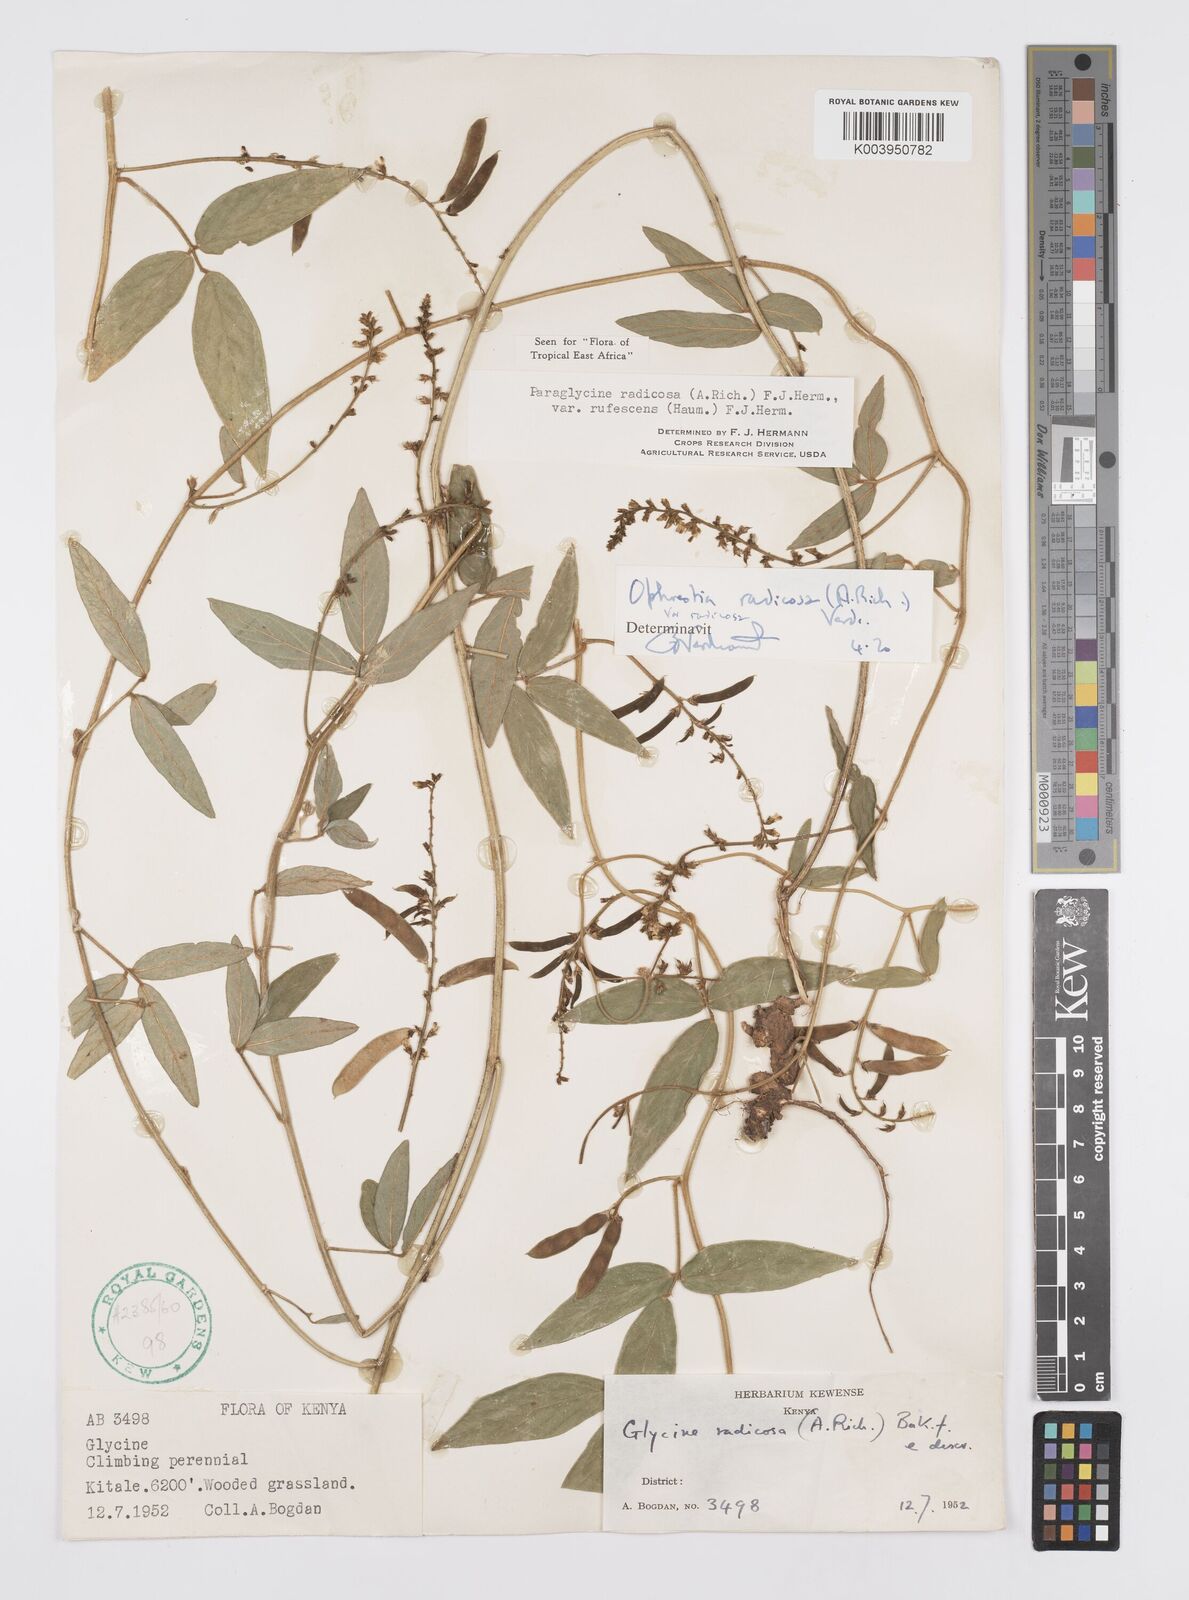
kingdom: Plantae
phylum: Tracheophyta
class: Magnoliopsida
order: Fabales
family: Fabaceae
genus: Ophrestia
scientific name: Ophrestia radicosa
